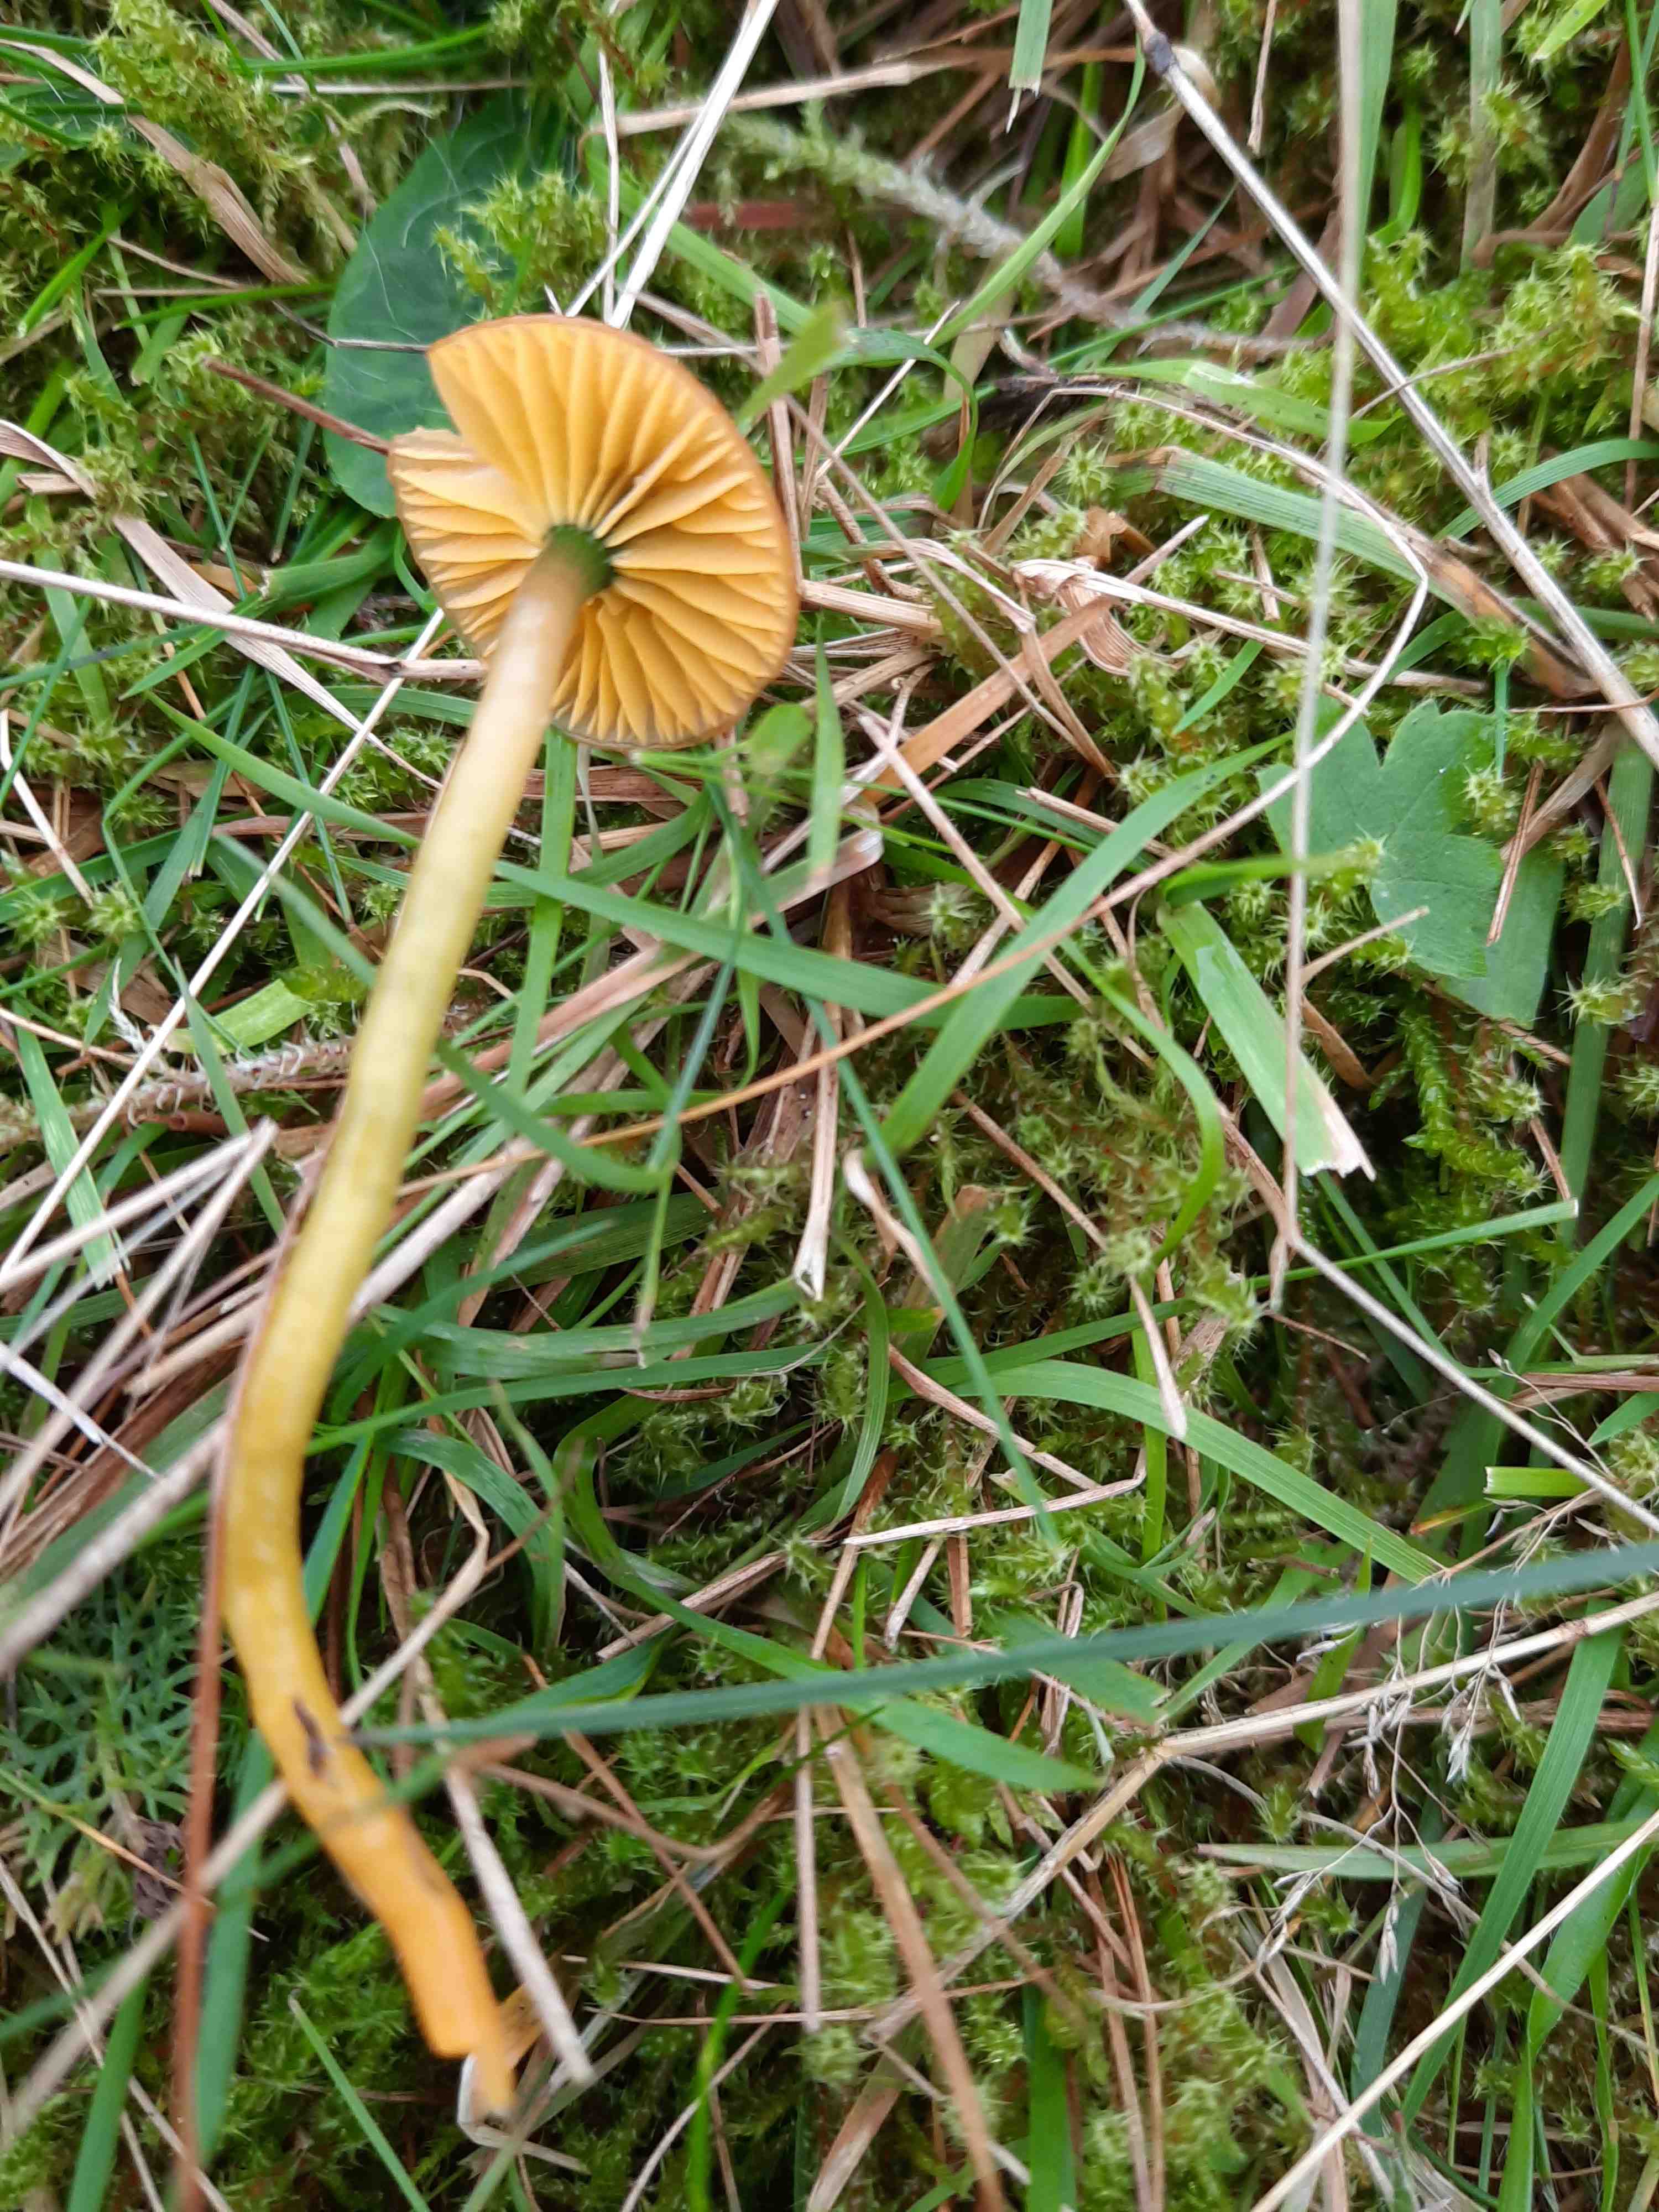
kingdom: Fungi
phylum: Basidiomycota
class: Agaricomycetes
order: Agaricales
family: Hygrophoraceae
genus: Gliophorus
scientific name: Gliophorus psittacinus
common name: papegøje-vokshat
